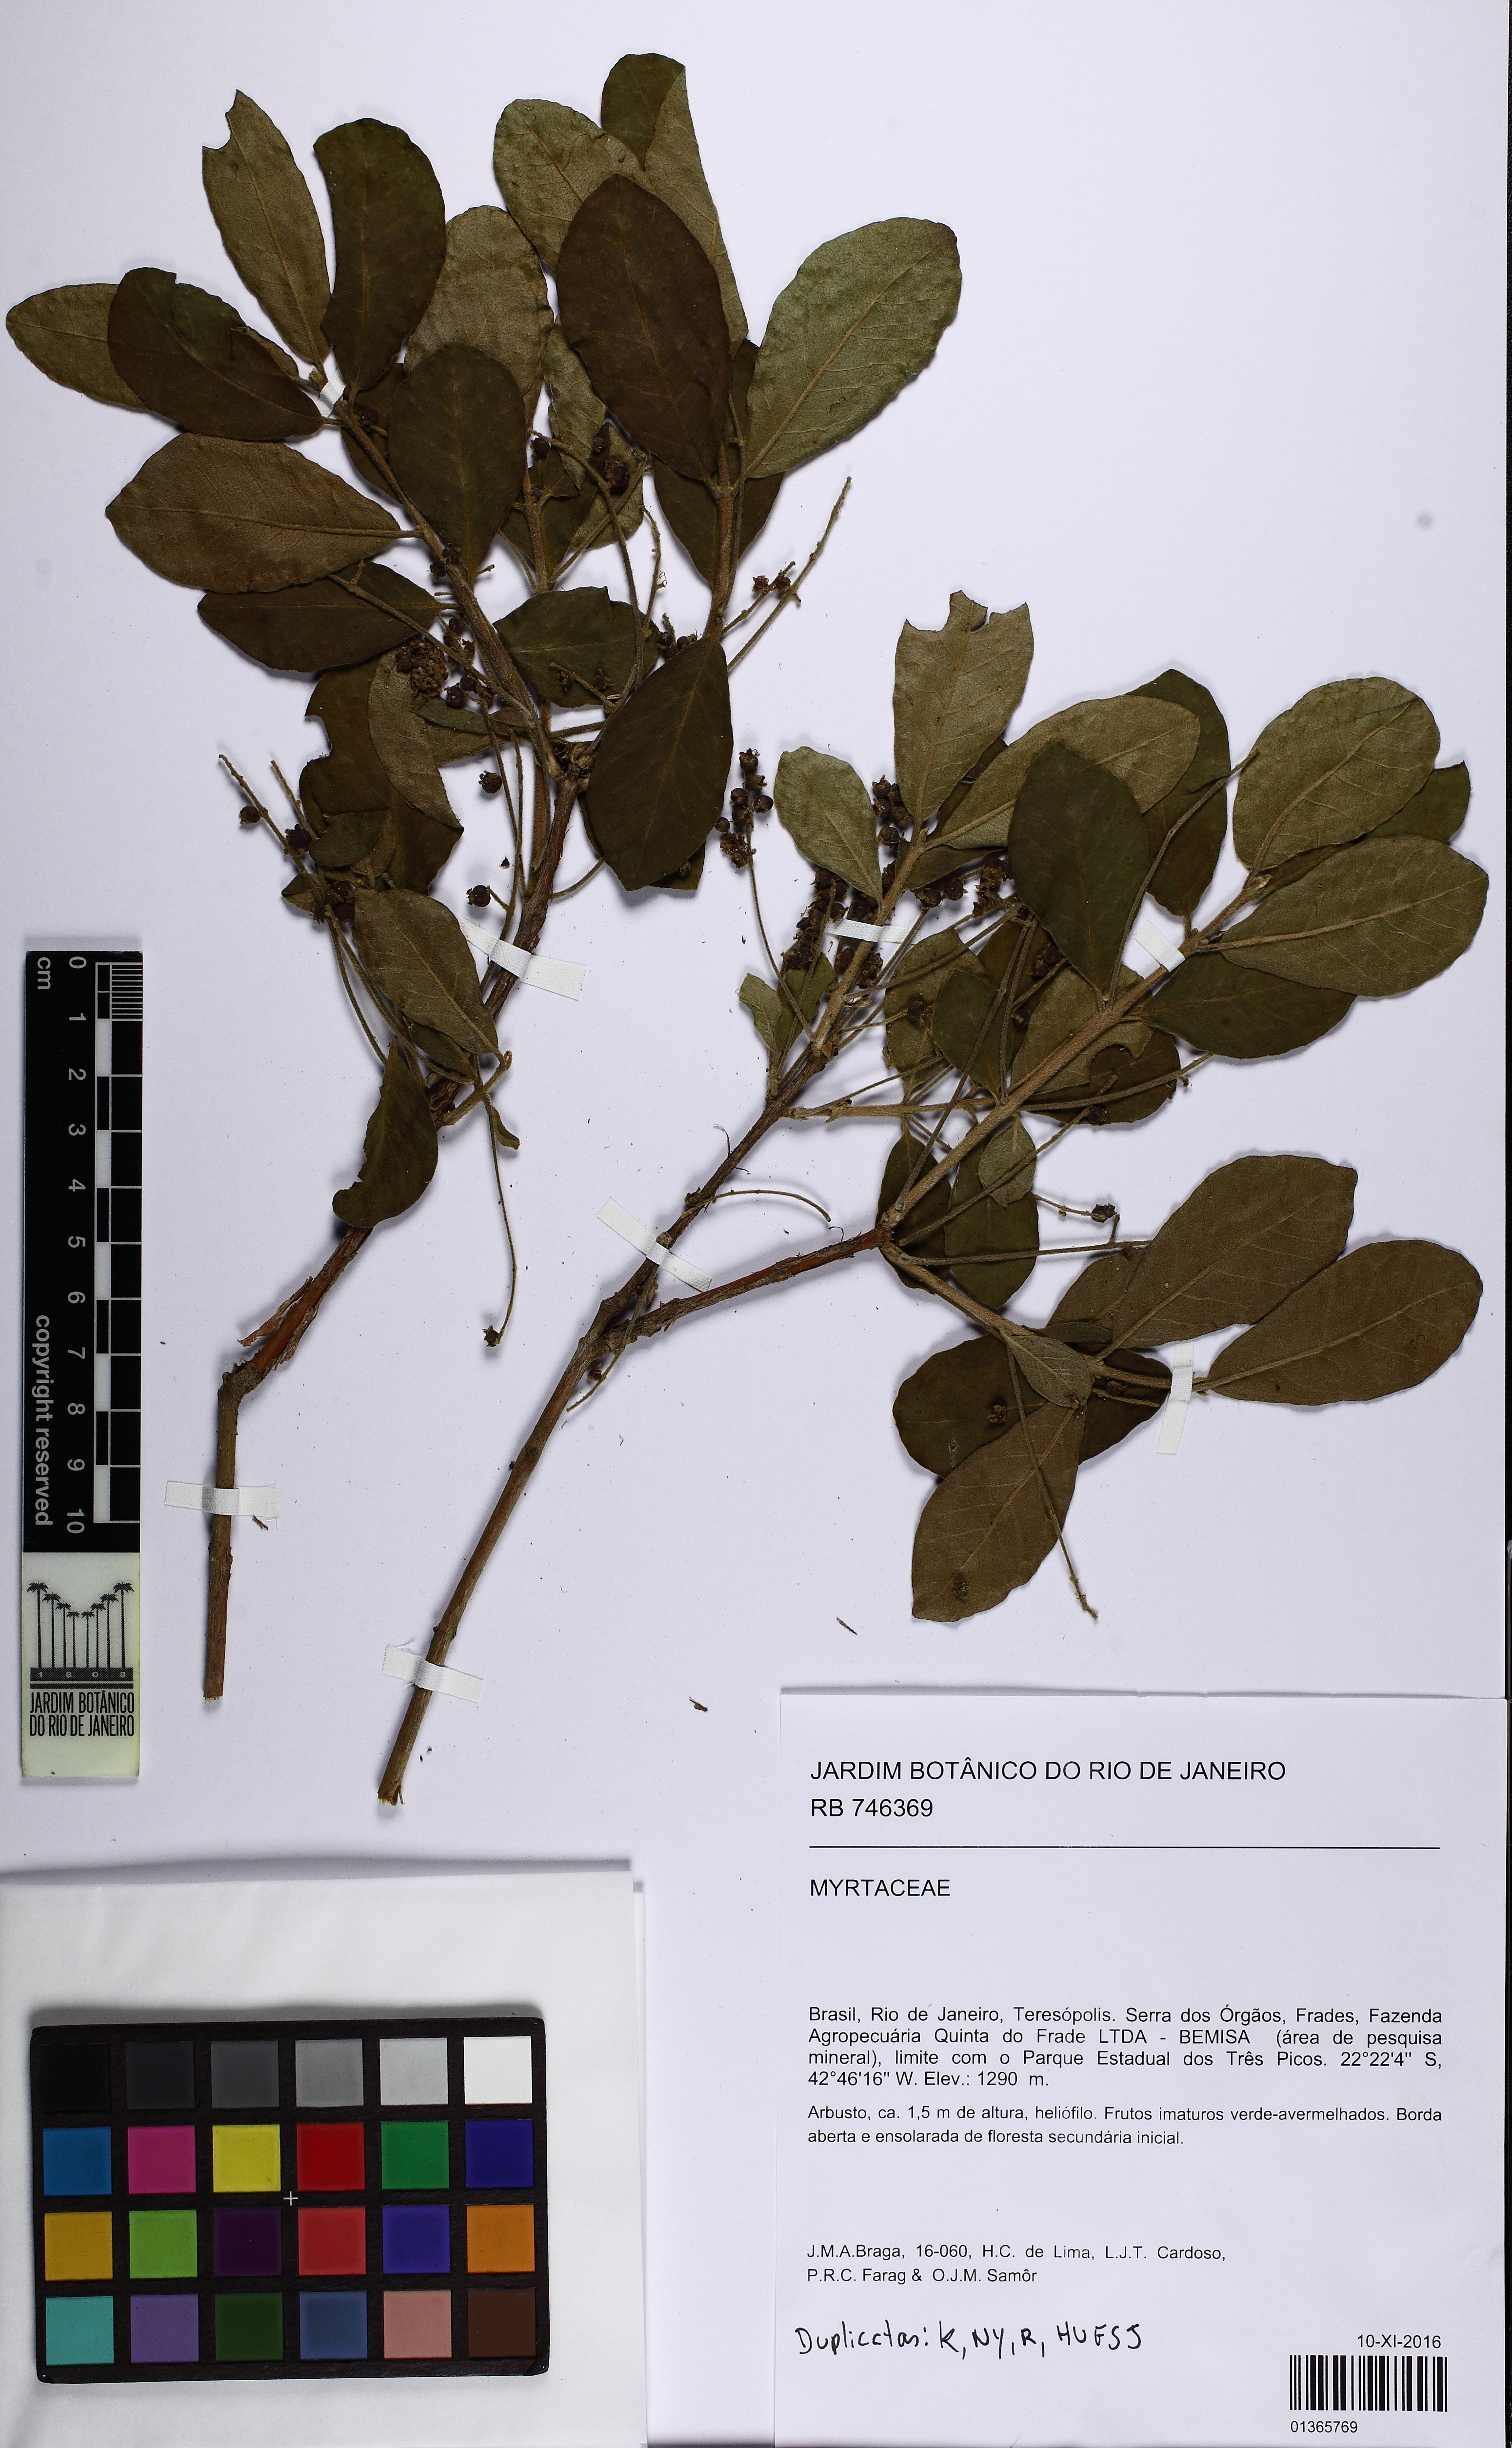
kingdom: Plantae
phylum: Tracheophyta
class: Magnoliopsida
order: Myrtales
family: Myrtaceae
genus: Myrcia
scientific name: Myrcia tomentosa
